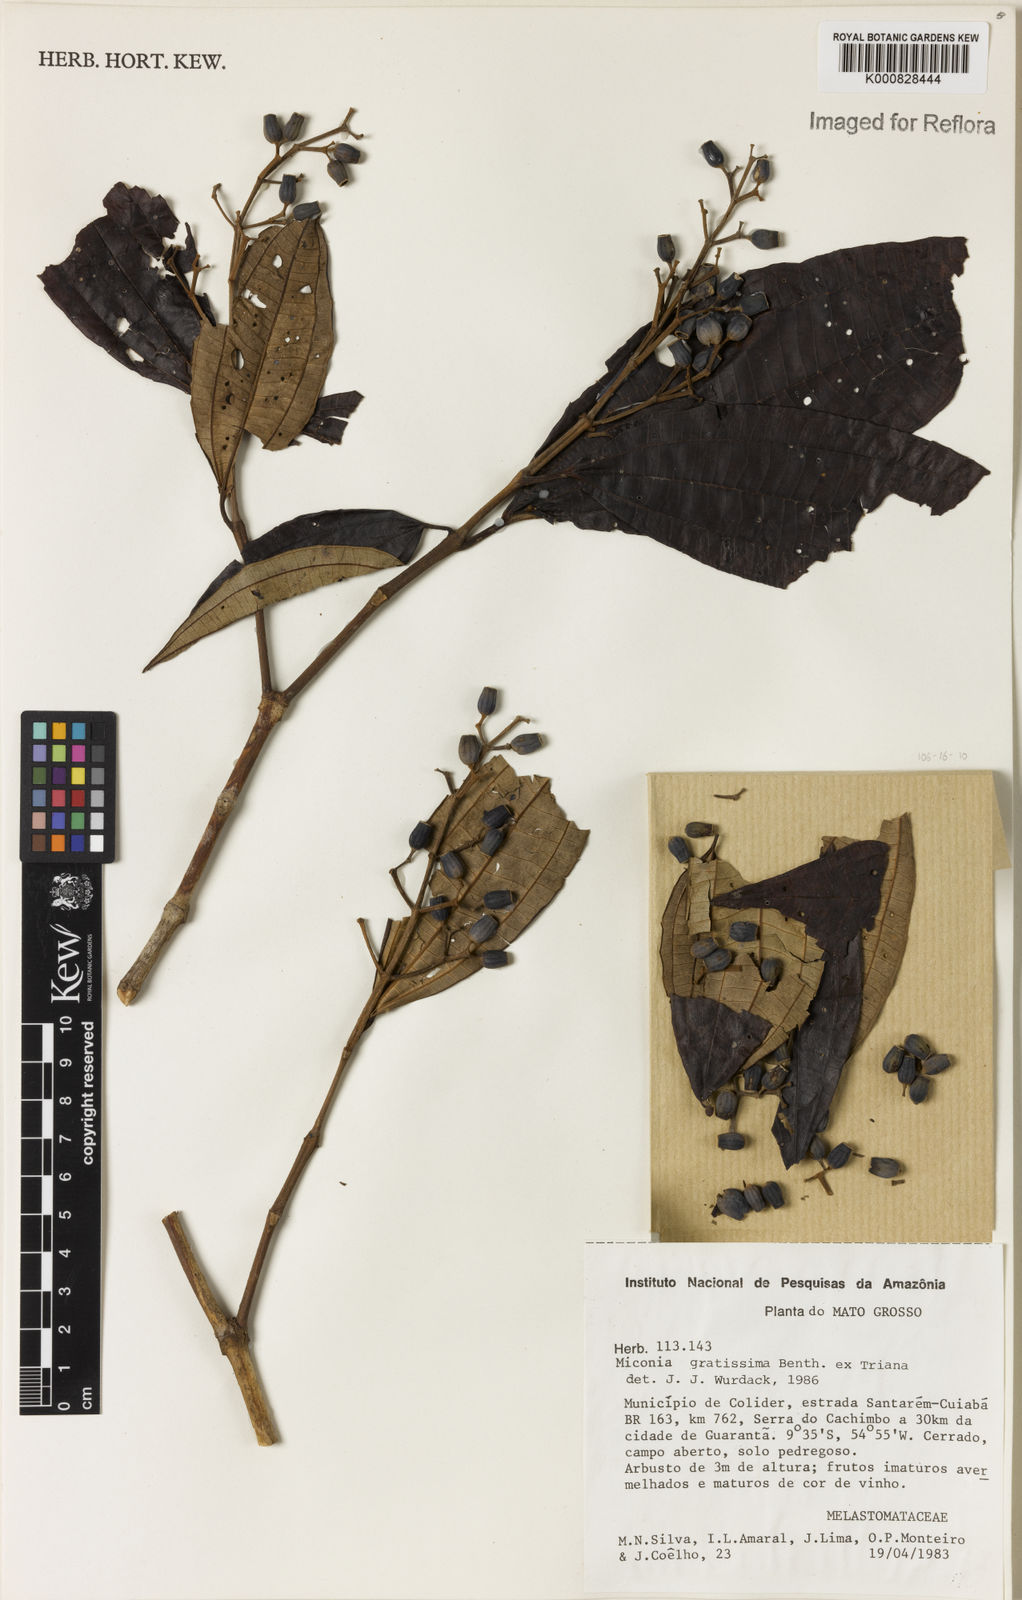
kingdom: Plantae
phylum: Tracheophyta
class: Magnoliopsida
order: Myrtales
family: Melastomataceae
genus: Miconia
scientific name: Miconia gratissima
